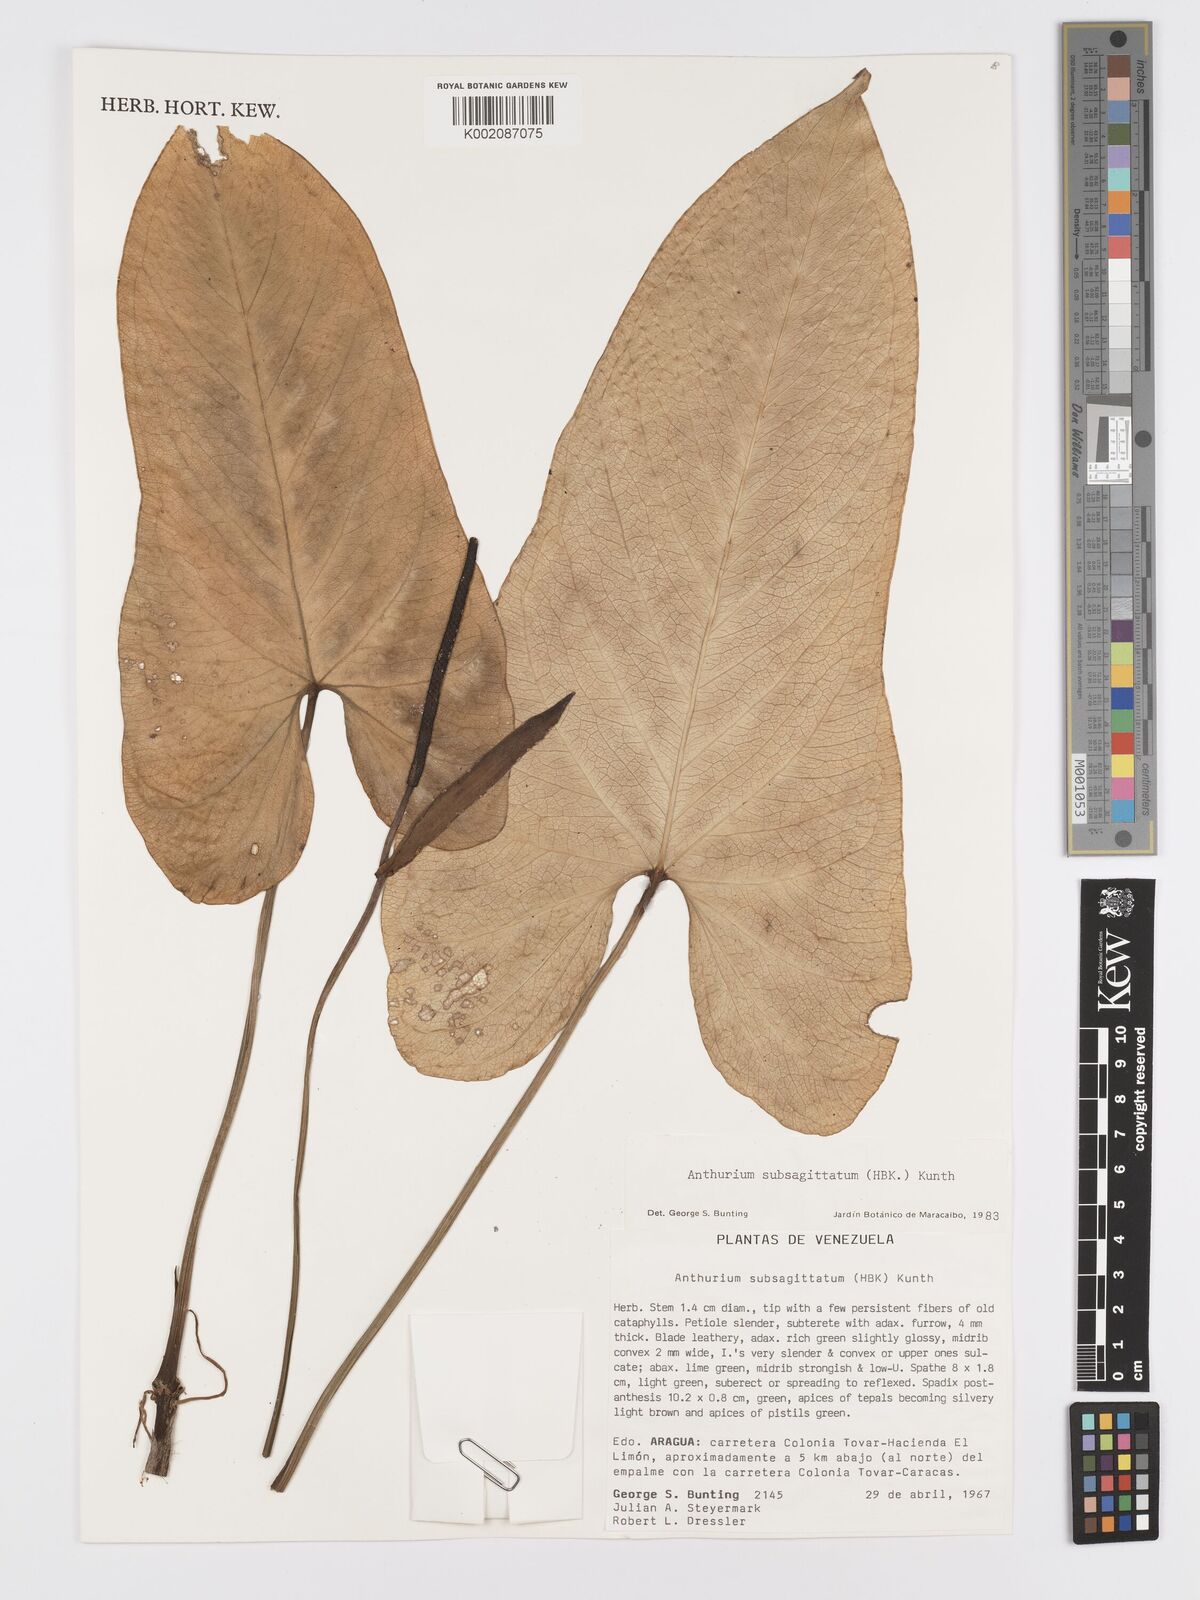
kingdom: Plantae
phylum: Tracheophyta
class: Liliopsida
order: Alismatales
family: Araceae
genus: Anthurium
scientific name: Anthurium
